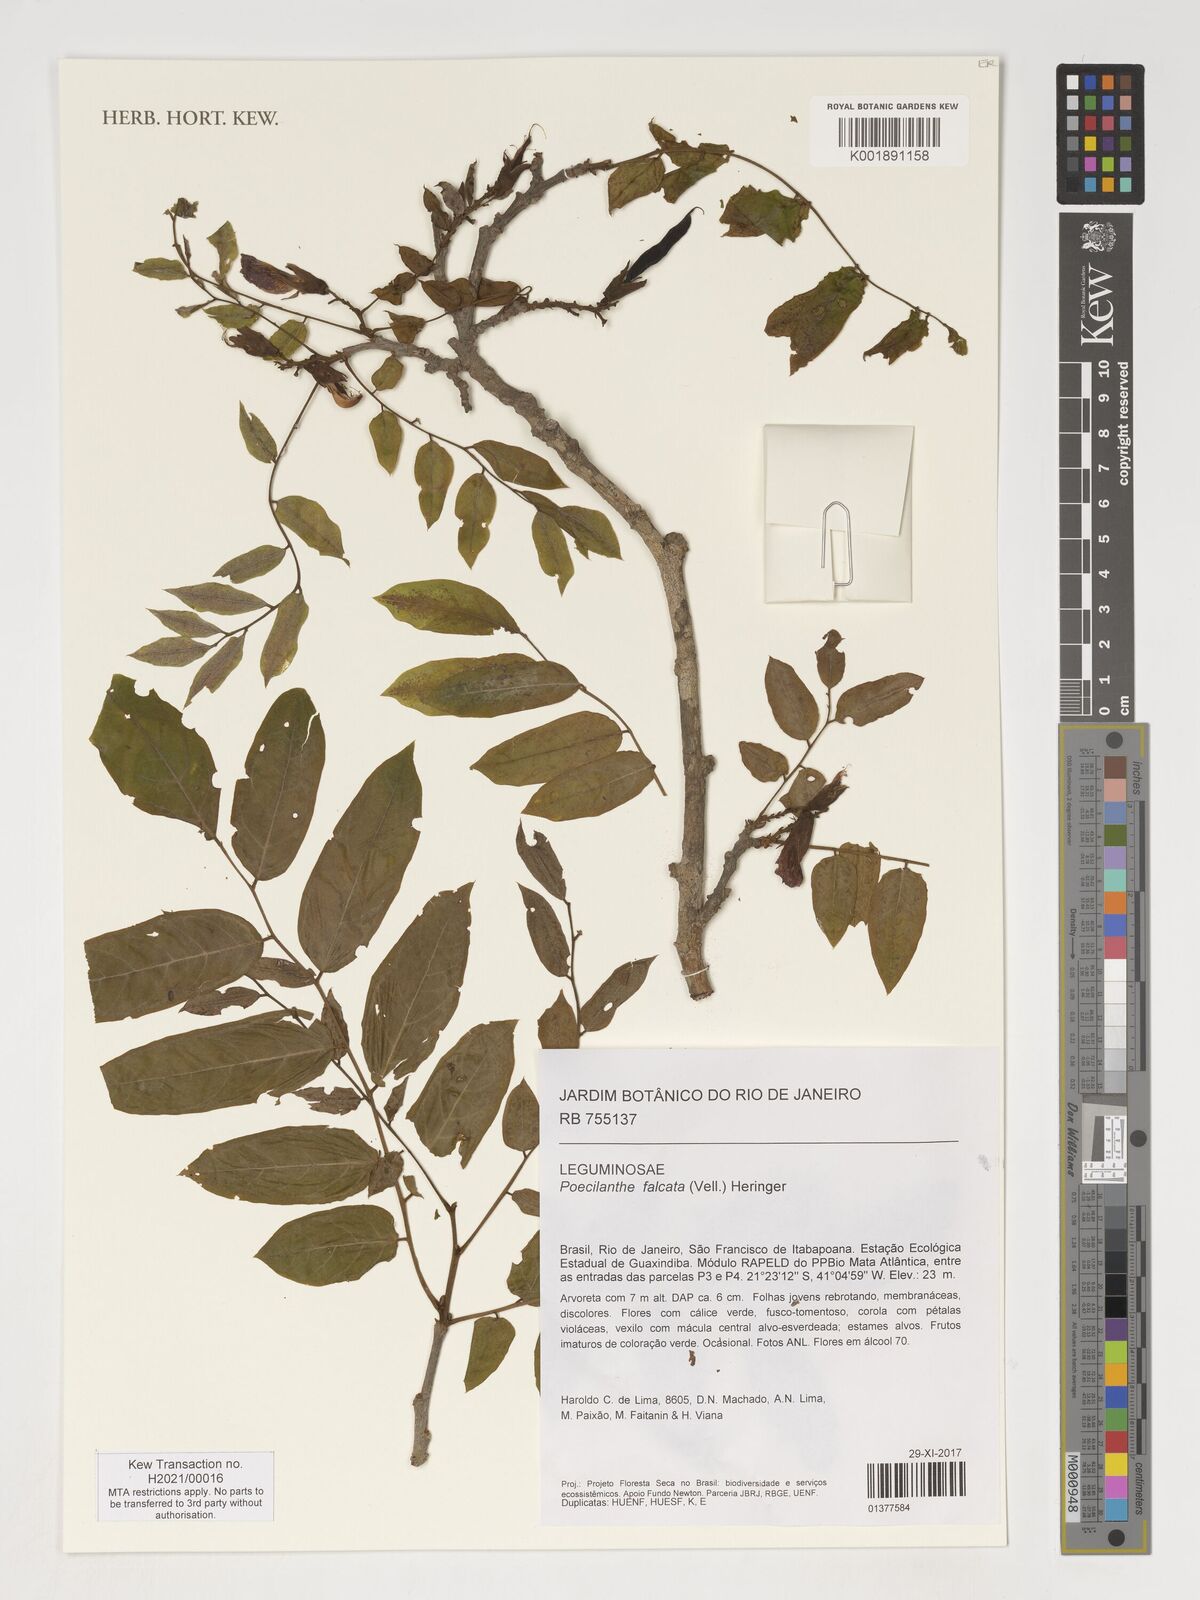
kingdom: Plantae
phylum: Tracheophyta
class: Magnoliopsida
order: Fabales
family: Fabaceae
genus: Poecilanthe
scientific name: Poecilanthe falcata
